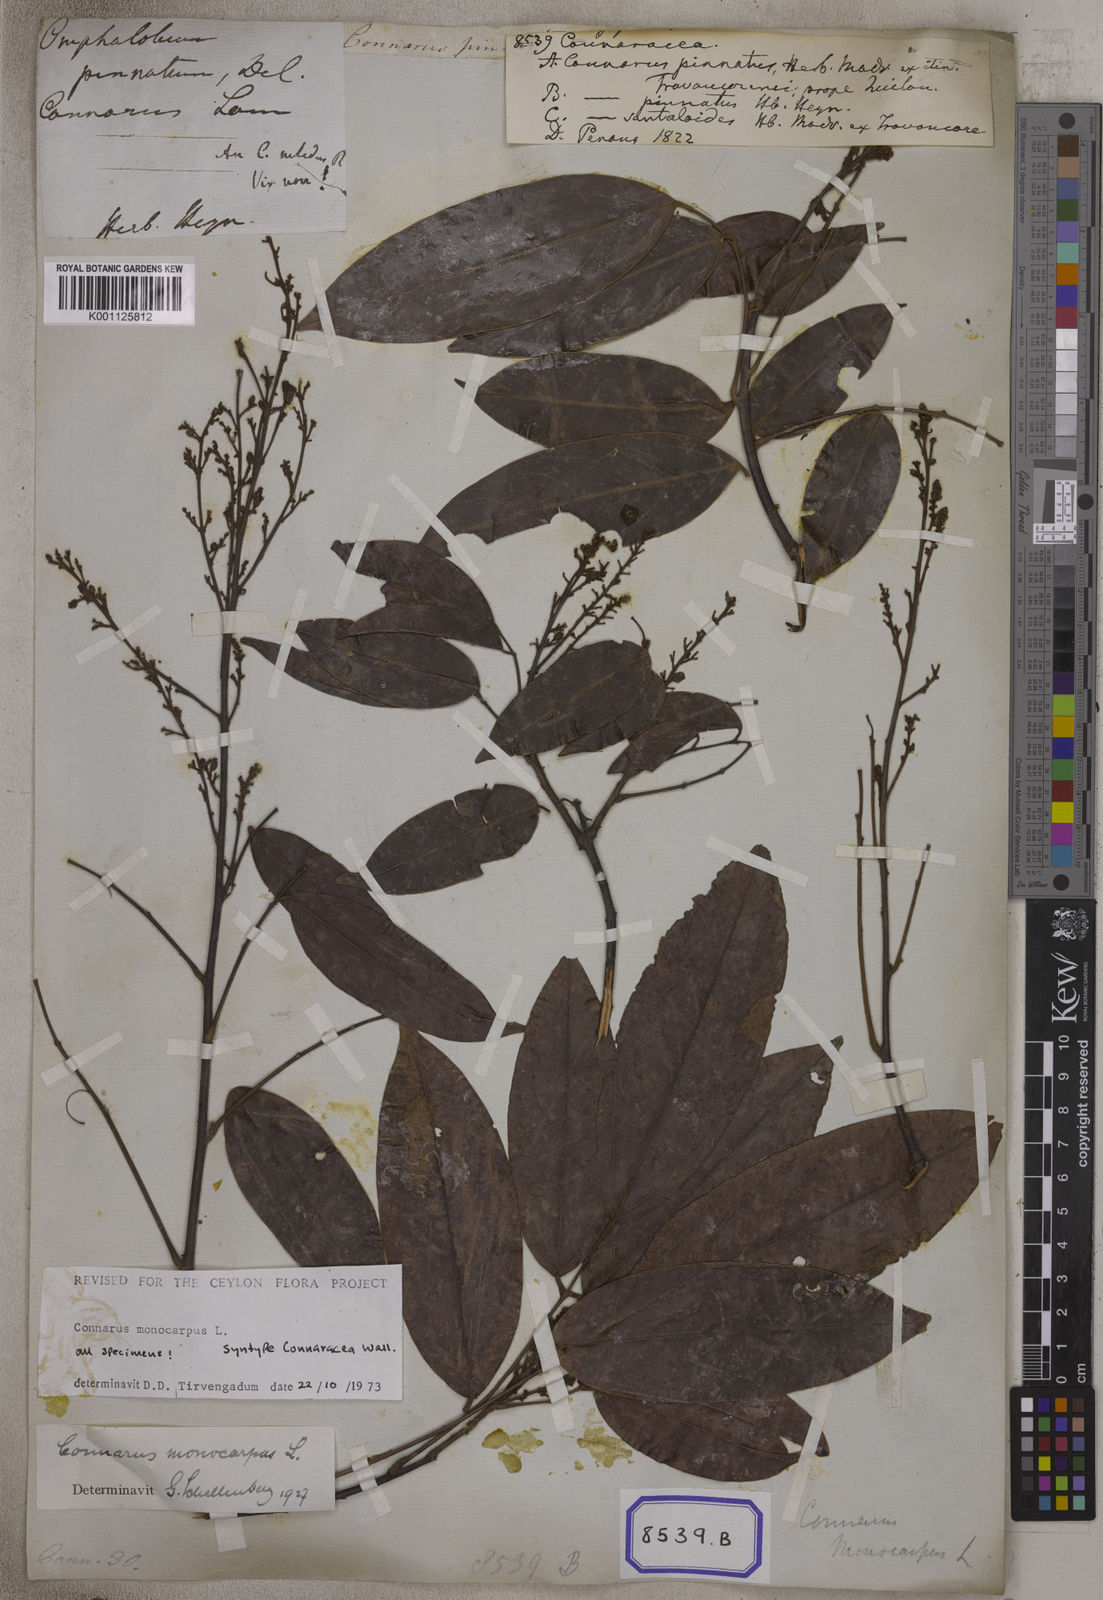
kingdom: Plantae
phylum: Tracheophyta
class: Magnoliopsida
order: Oxalidales
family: Connaraceae
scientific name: Connaraceae
